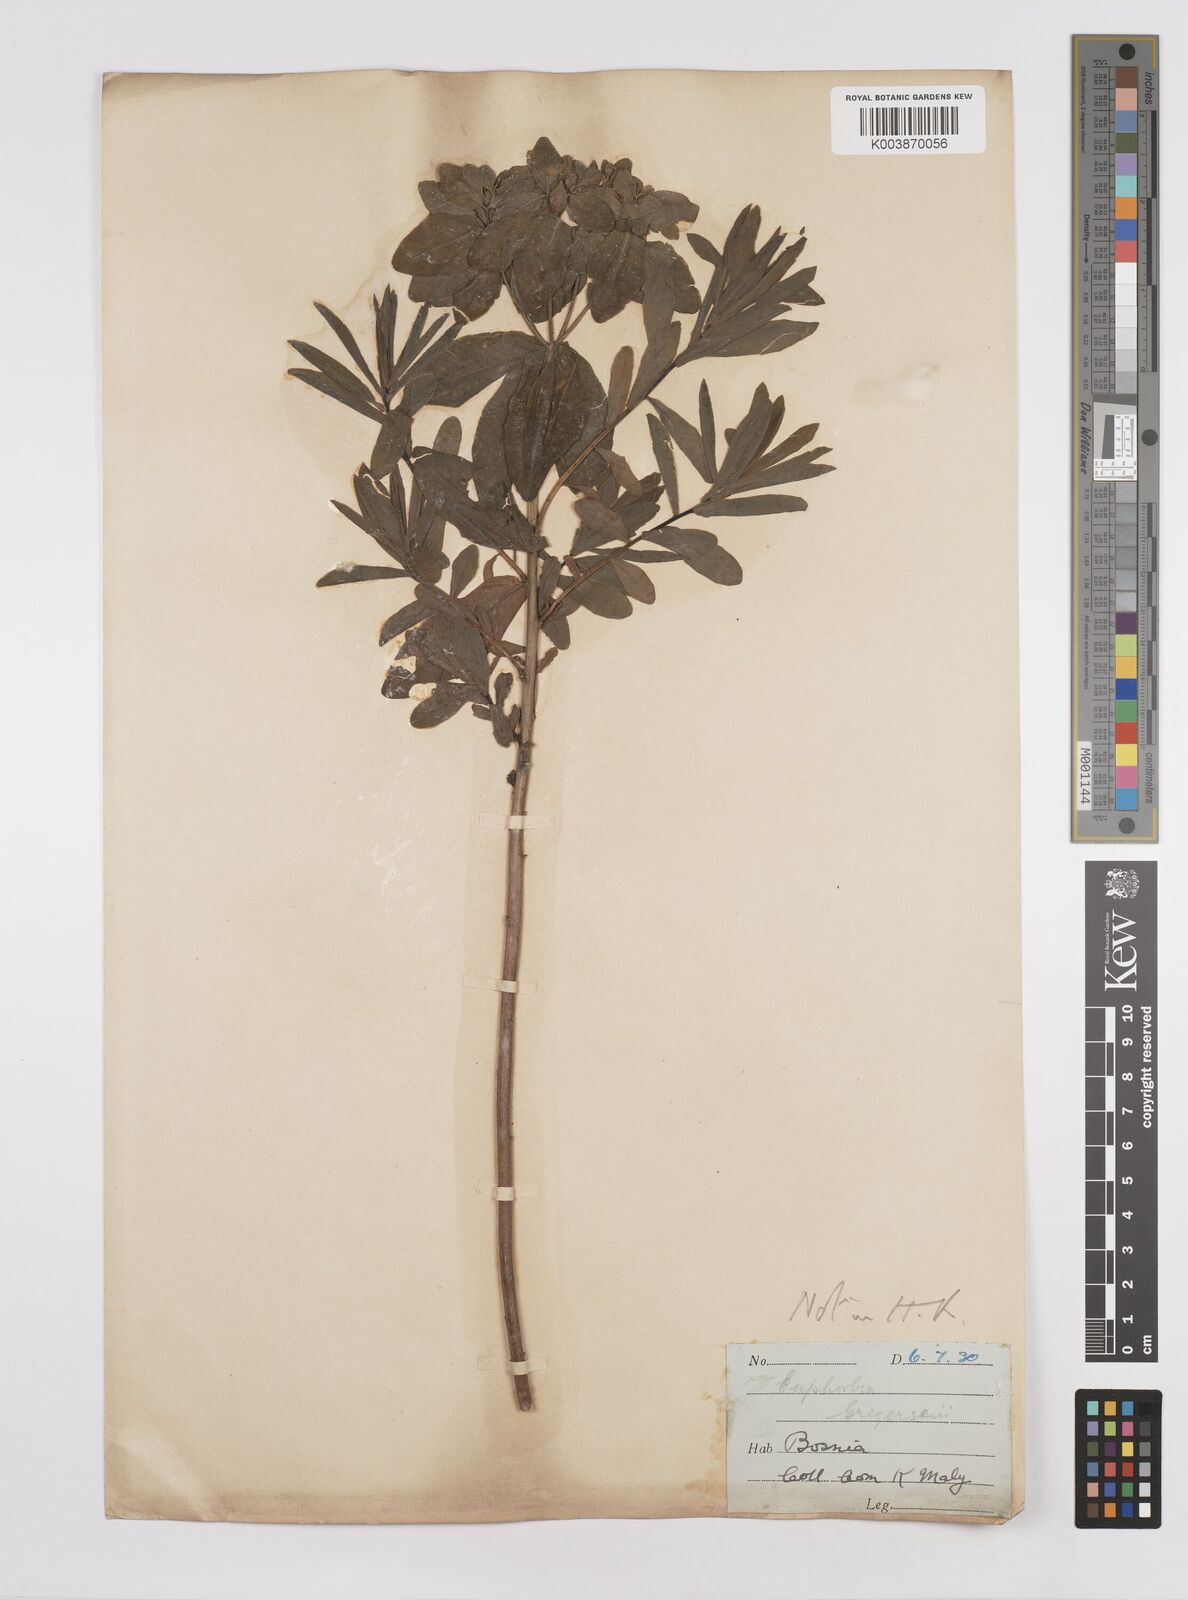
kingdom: Plantae
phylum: Tracheophyta
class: Magnoliopsida
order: Malpighiales
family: Euphorbiaceae
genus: Euphorbia
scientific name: Euphorbia gregersenii
